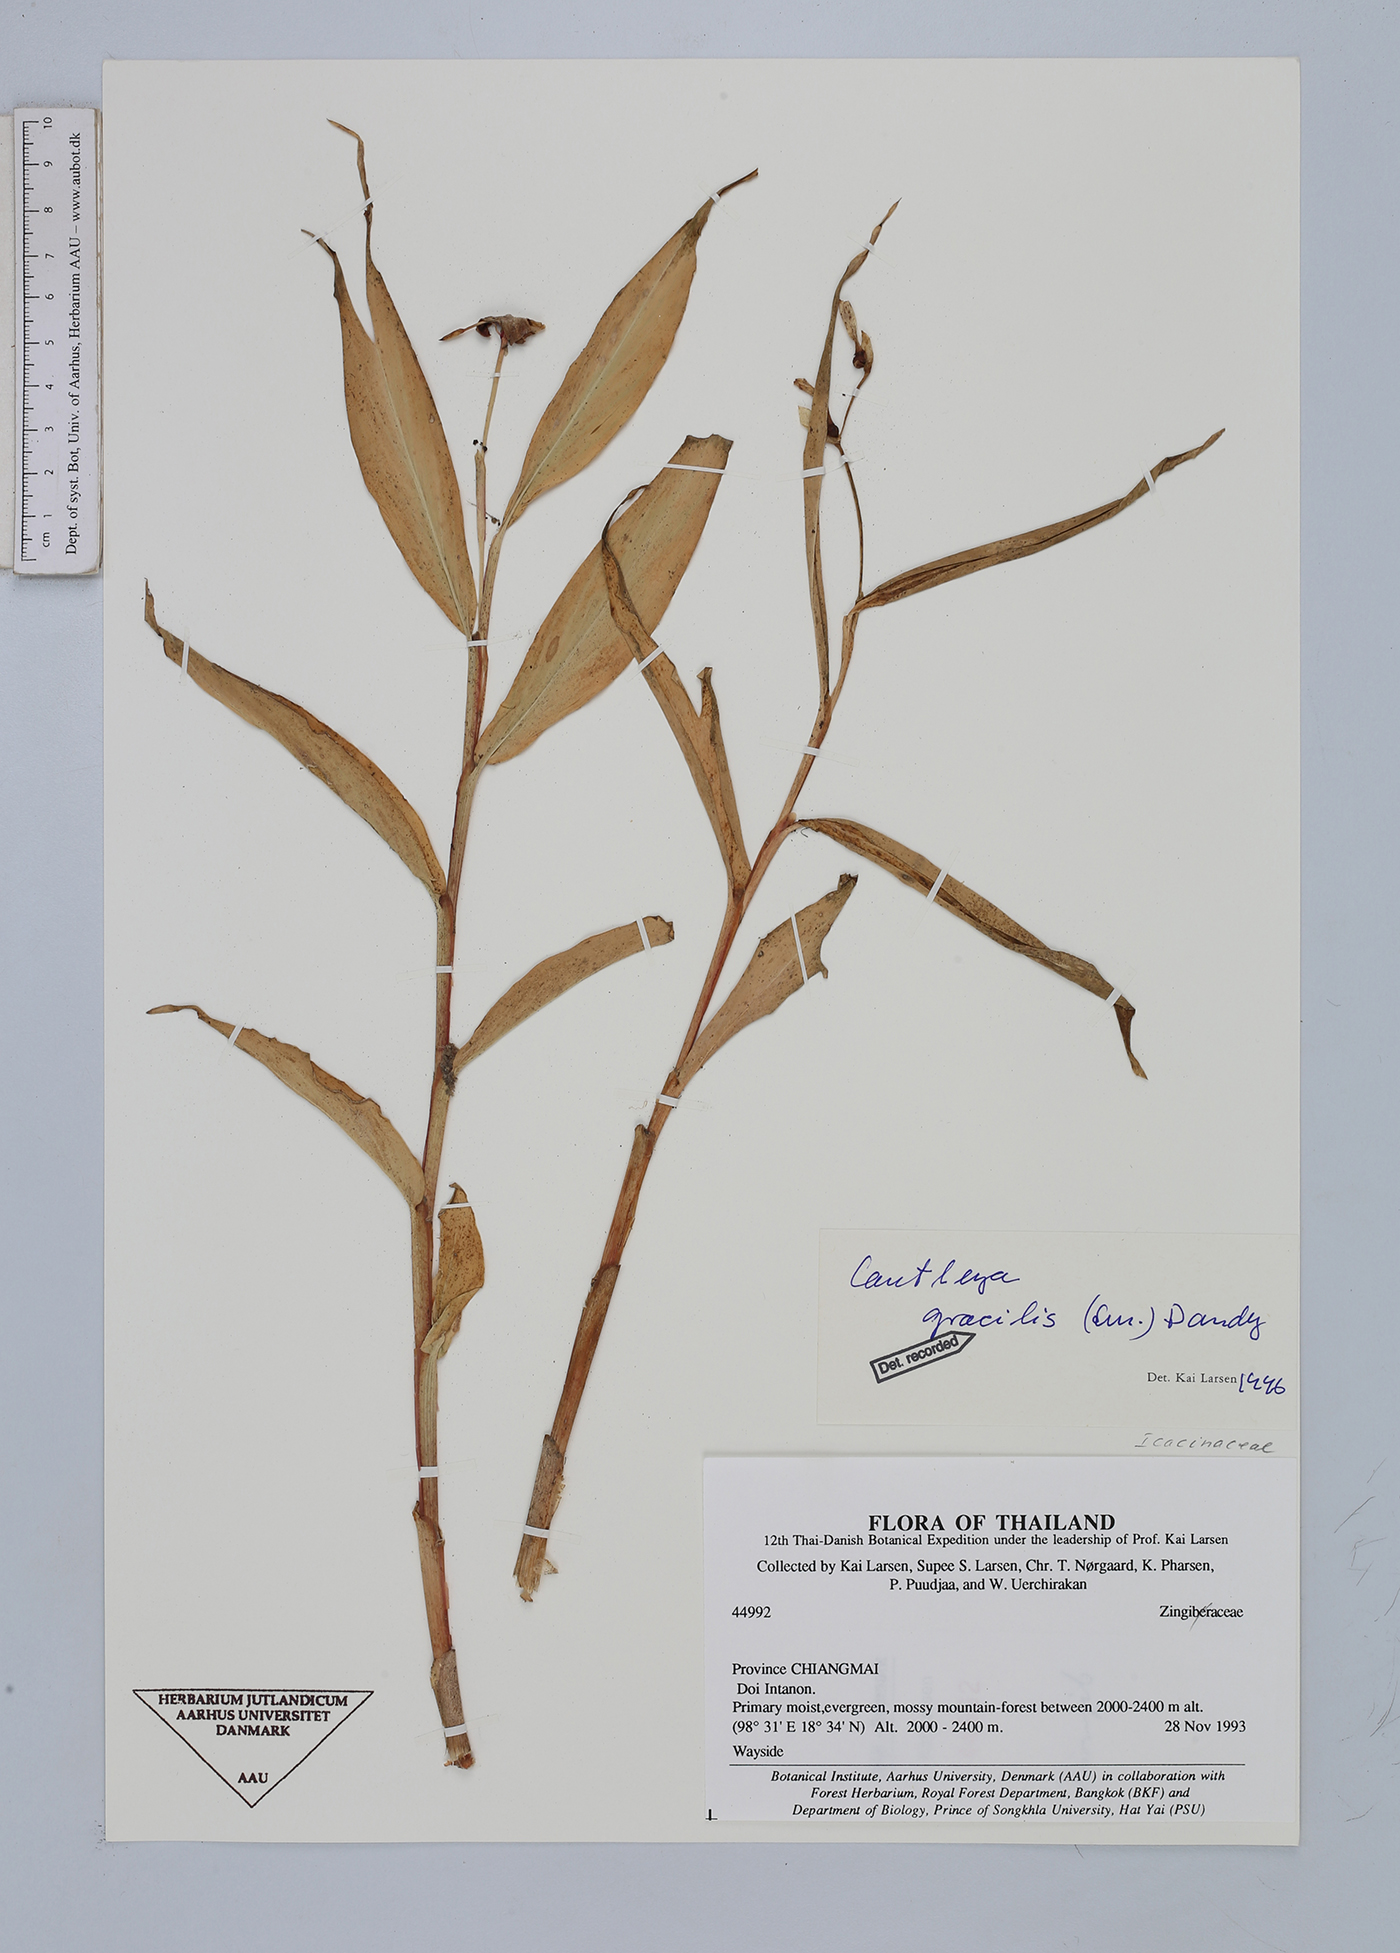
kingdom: Plantae
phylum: Tracheophyta
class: Magnoliopsida
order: Cardiopteridales
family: Stemonuraceae
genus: Cantleya
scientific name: Cantleya
